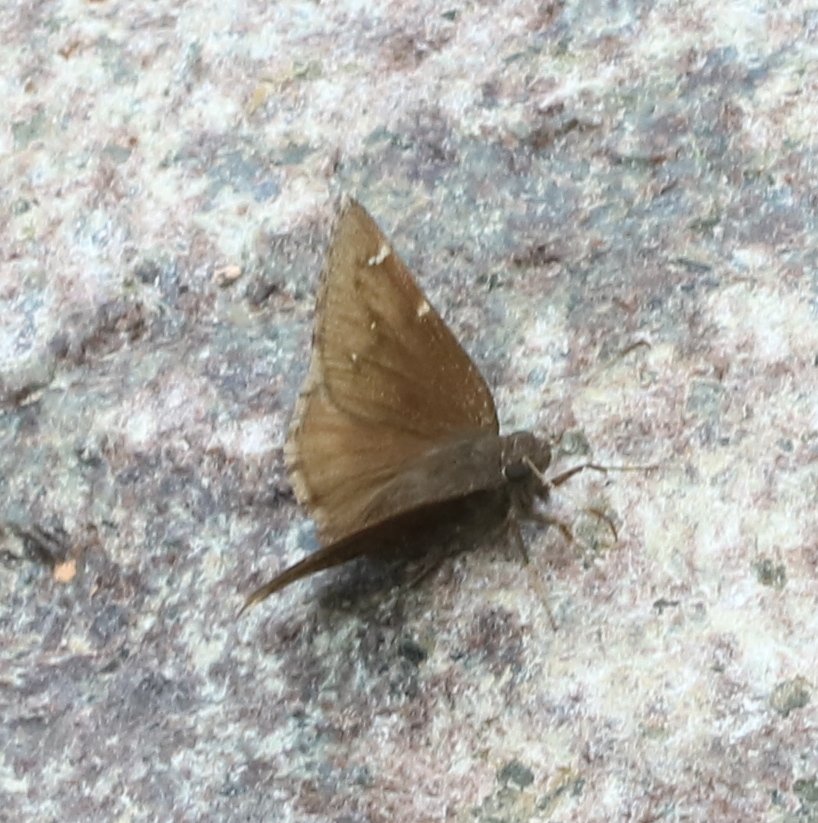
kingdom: Animalia
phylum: Arthropoda
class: Insecta
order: Lepidoptera
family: Hesperiidae
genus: Autochton
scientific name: Autochton
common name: Northern Cloudywing
